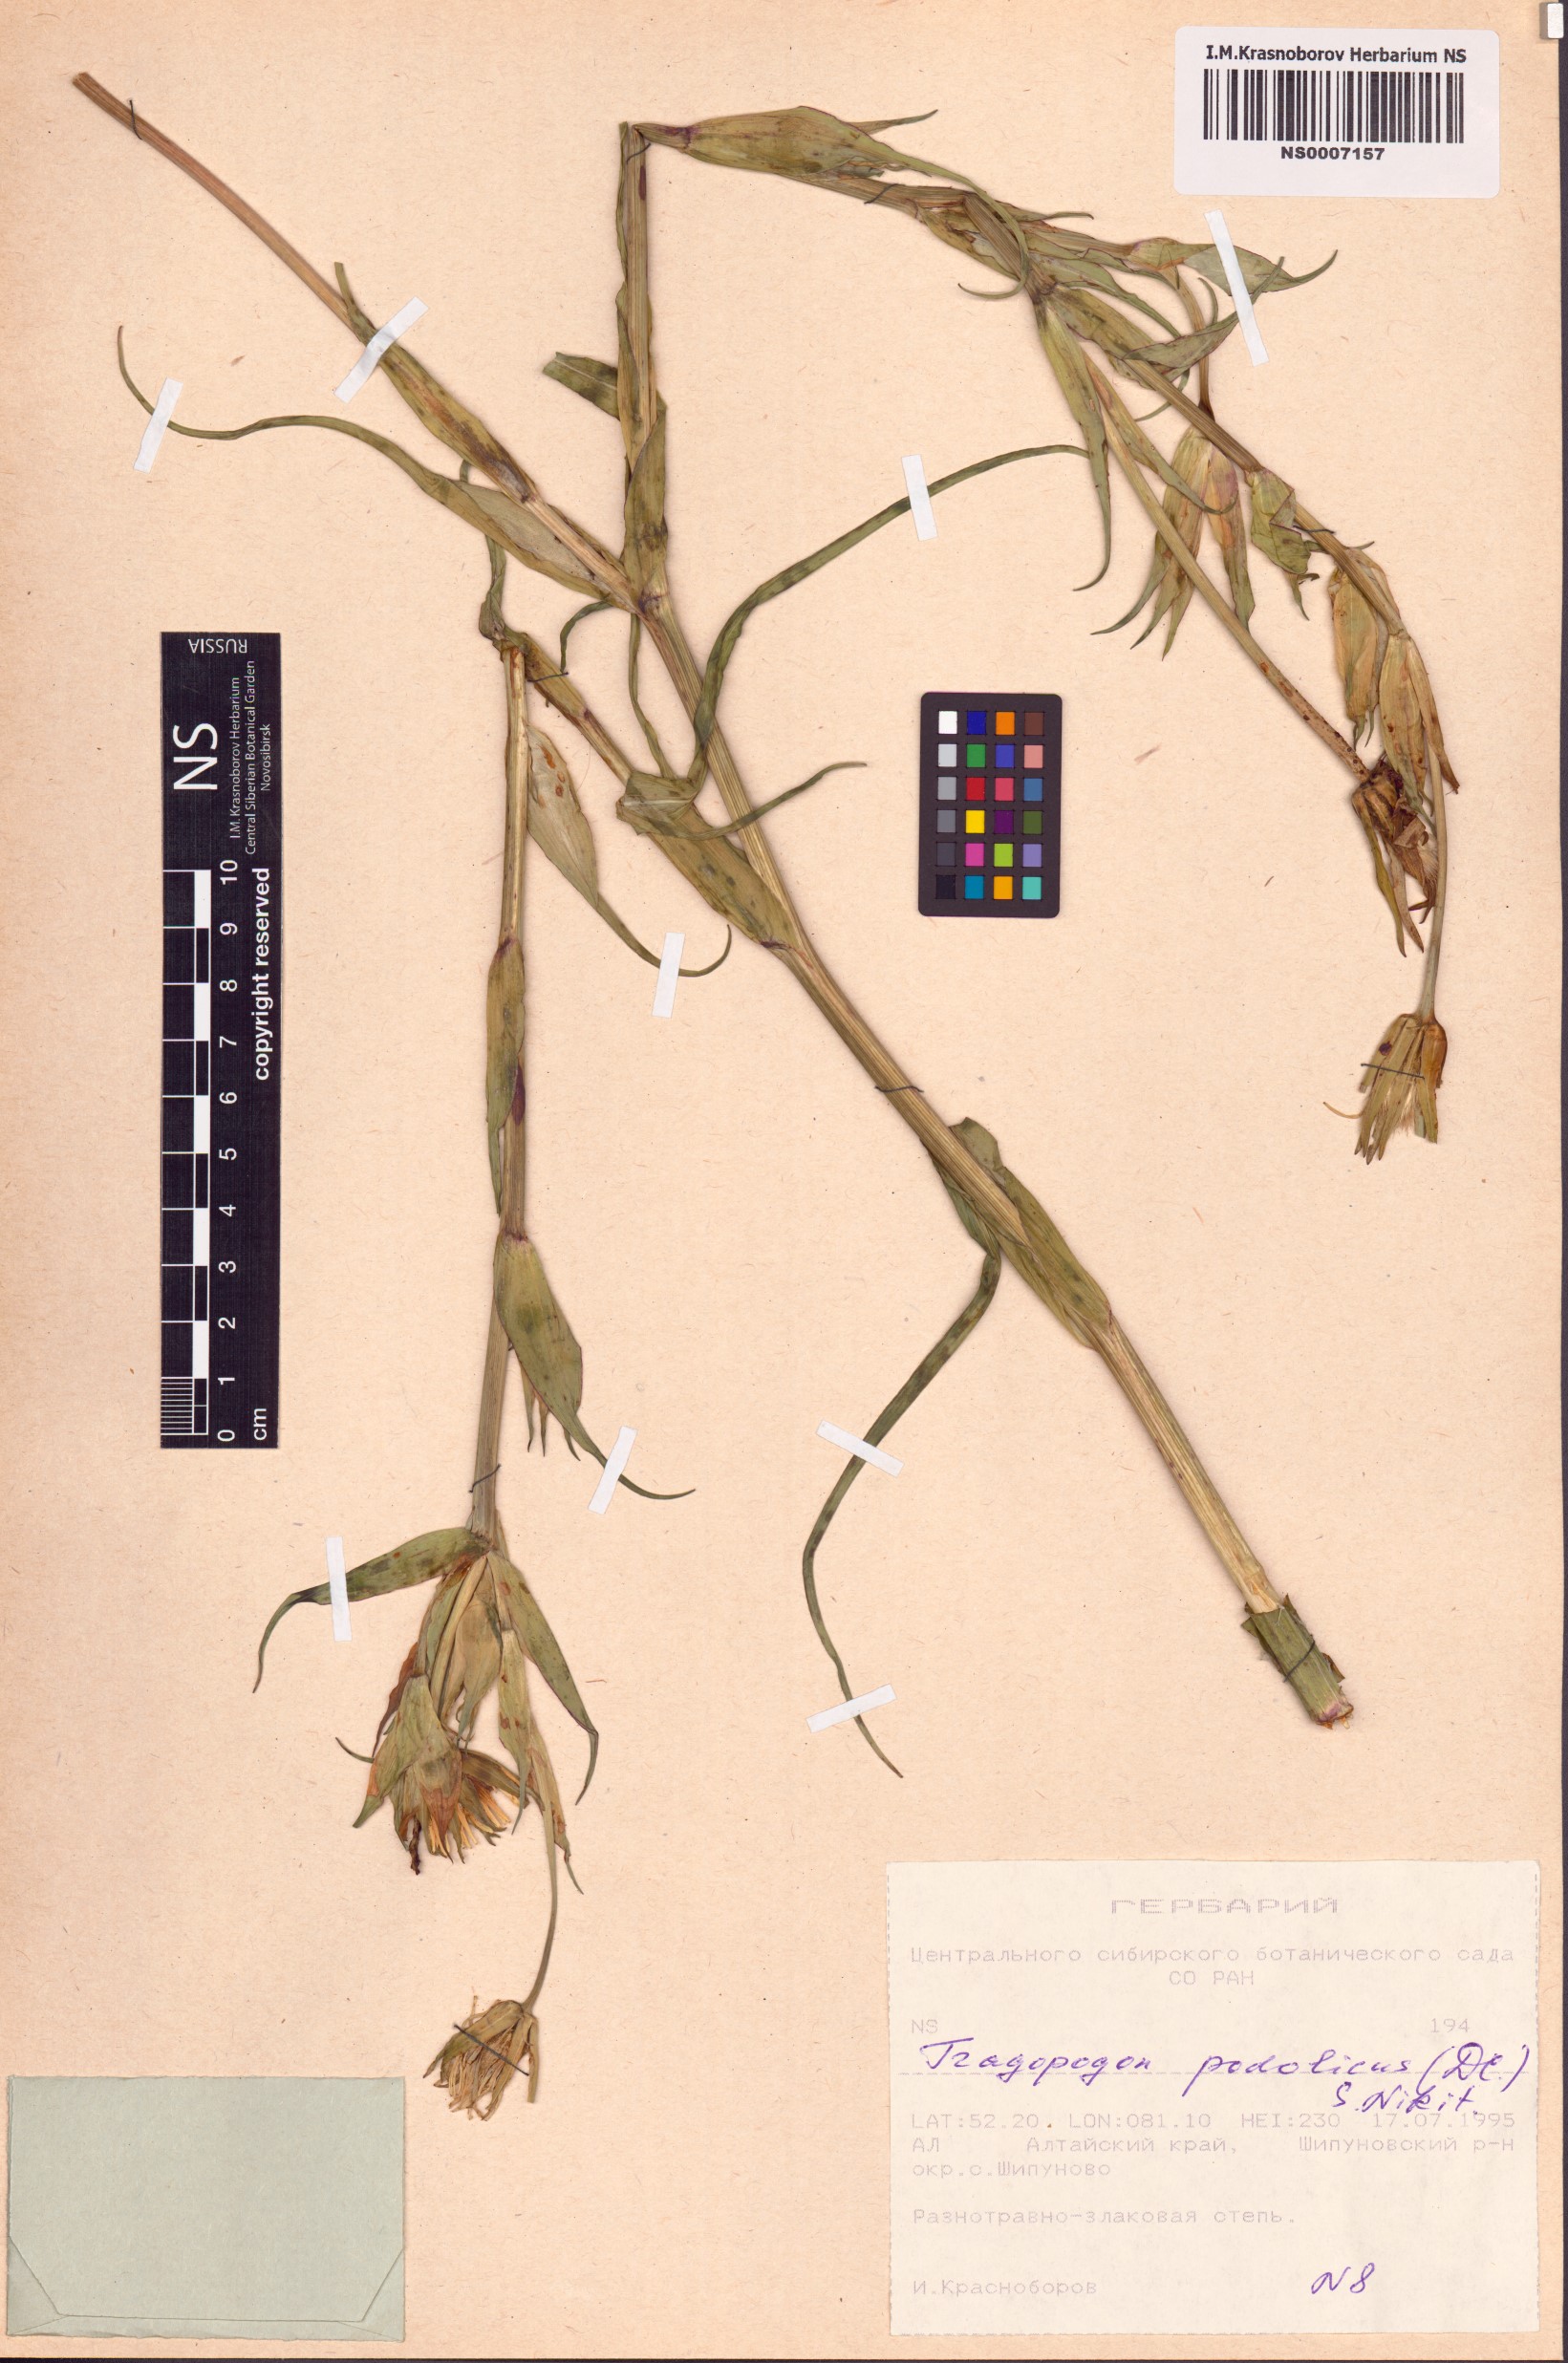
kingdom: Plantae
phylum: Tracheophyta
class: Magnoliopsida
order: Asterales
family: Asteraceae
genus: Tragopogon
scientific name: Tragopogon podolicus
